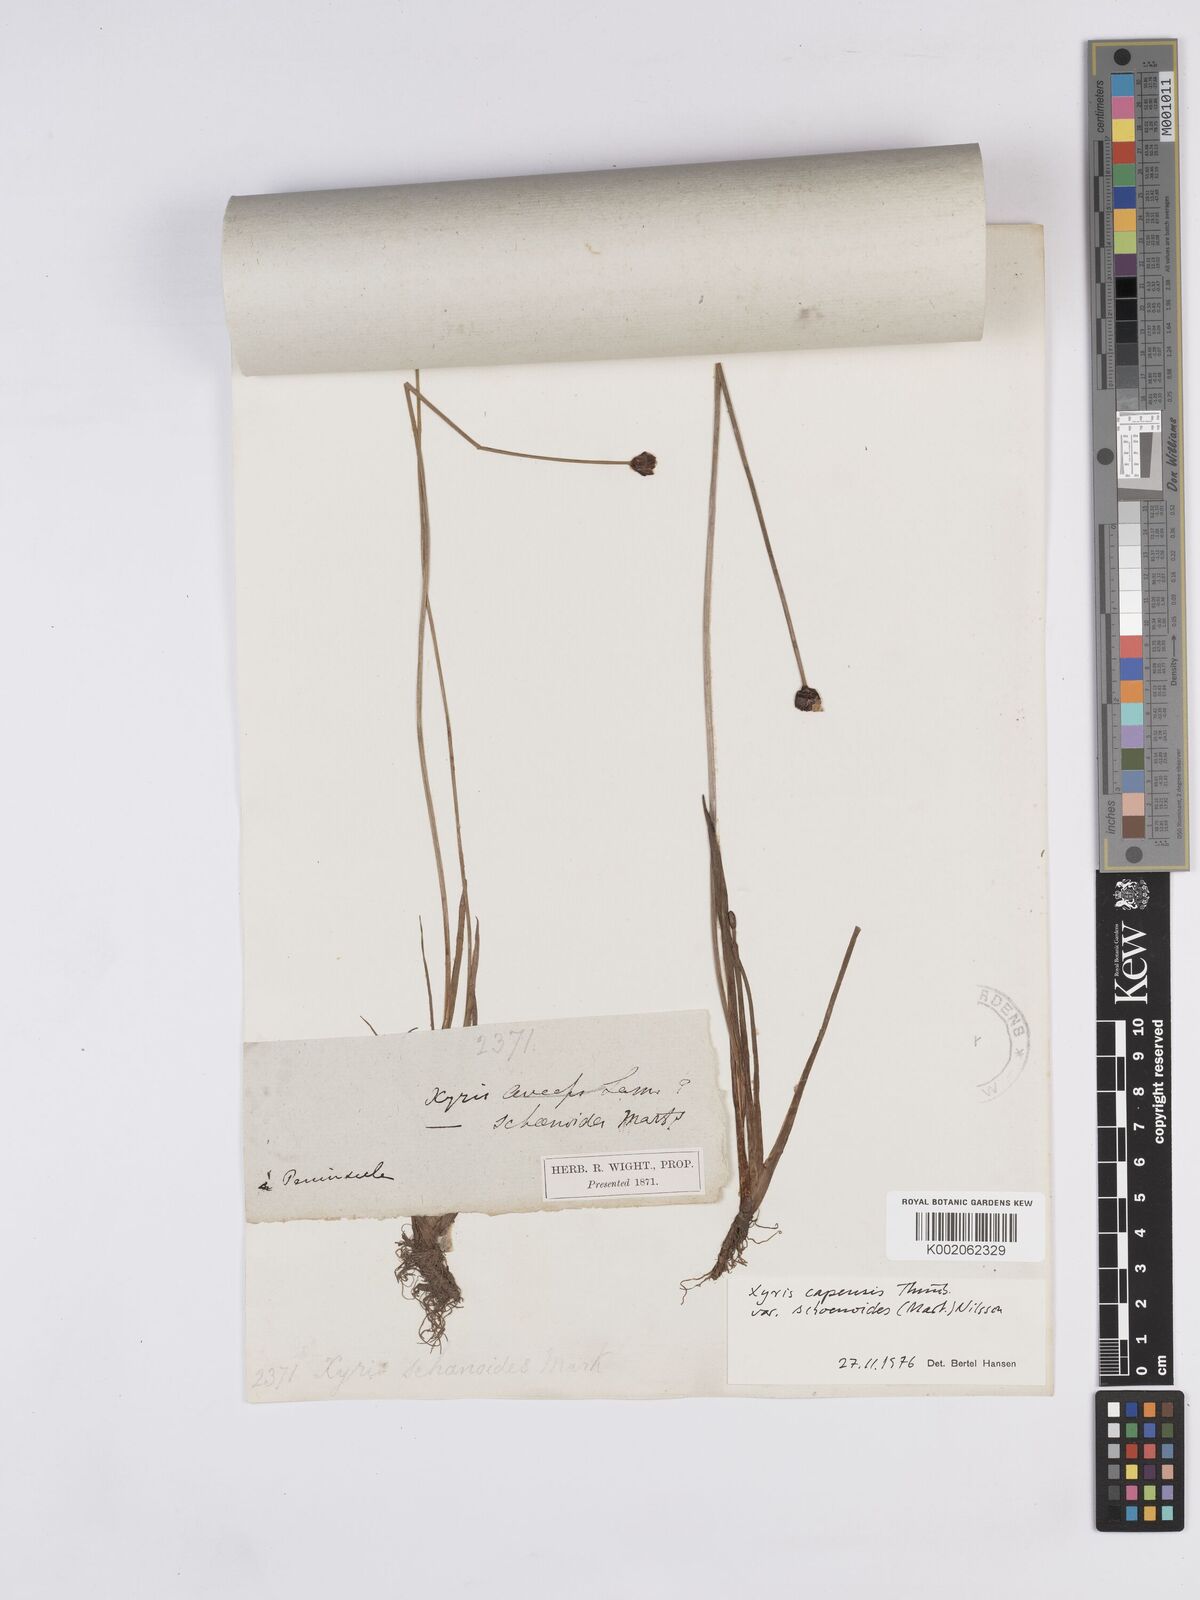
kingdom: Plantae
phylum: Tracheophyta
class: Liliopsida
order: Poales
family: Xyridaceae
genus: Xyris
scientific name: Xyris capensis
